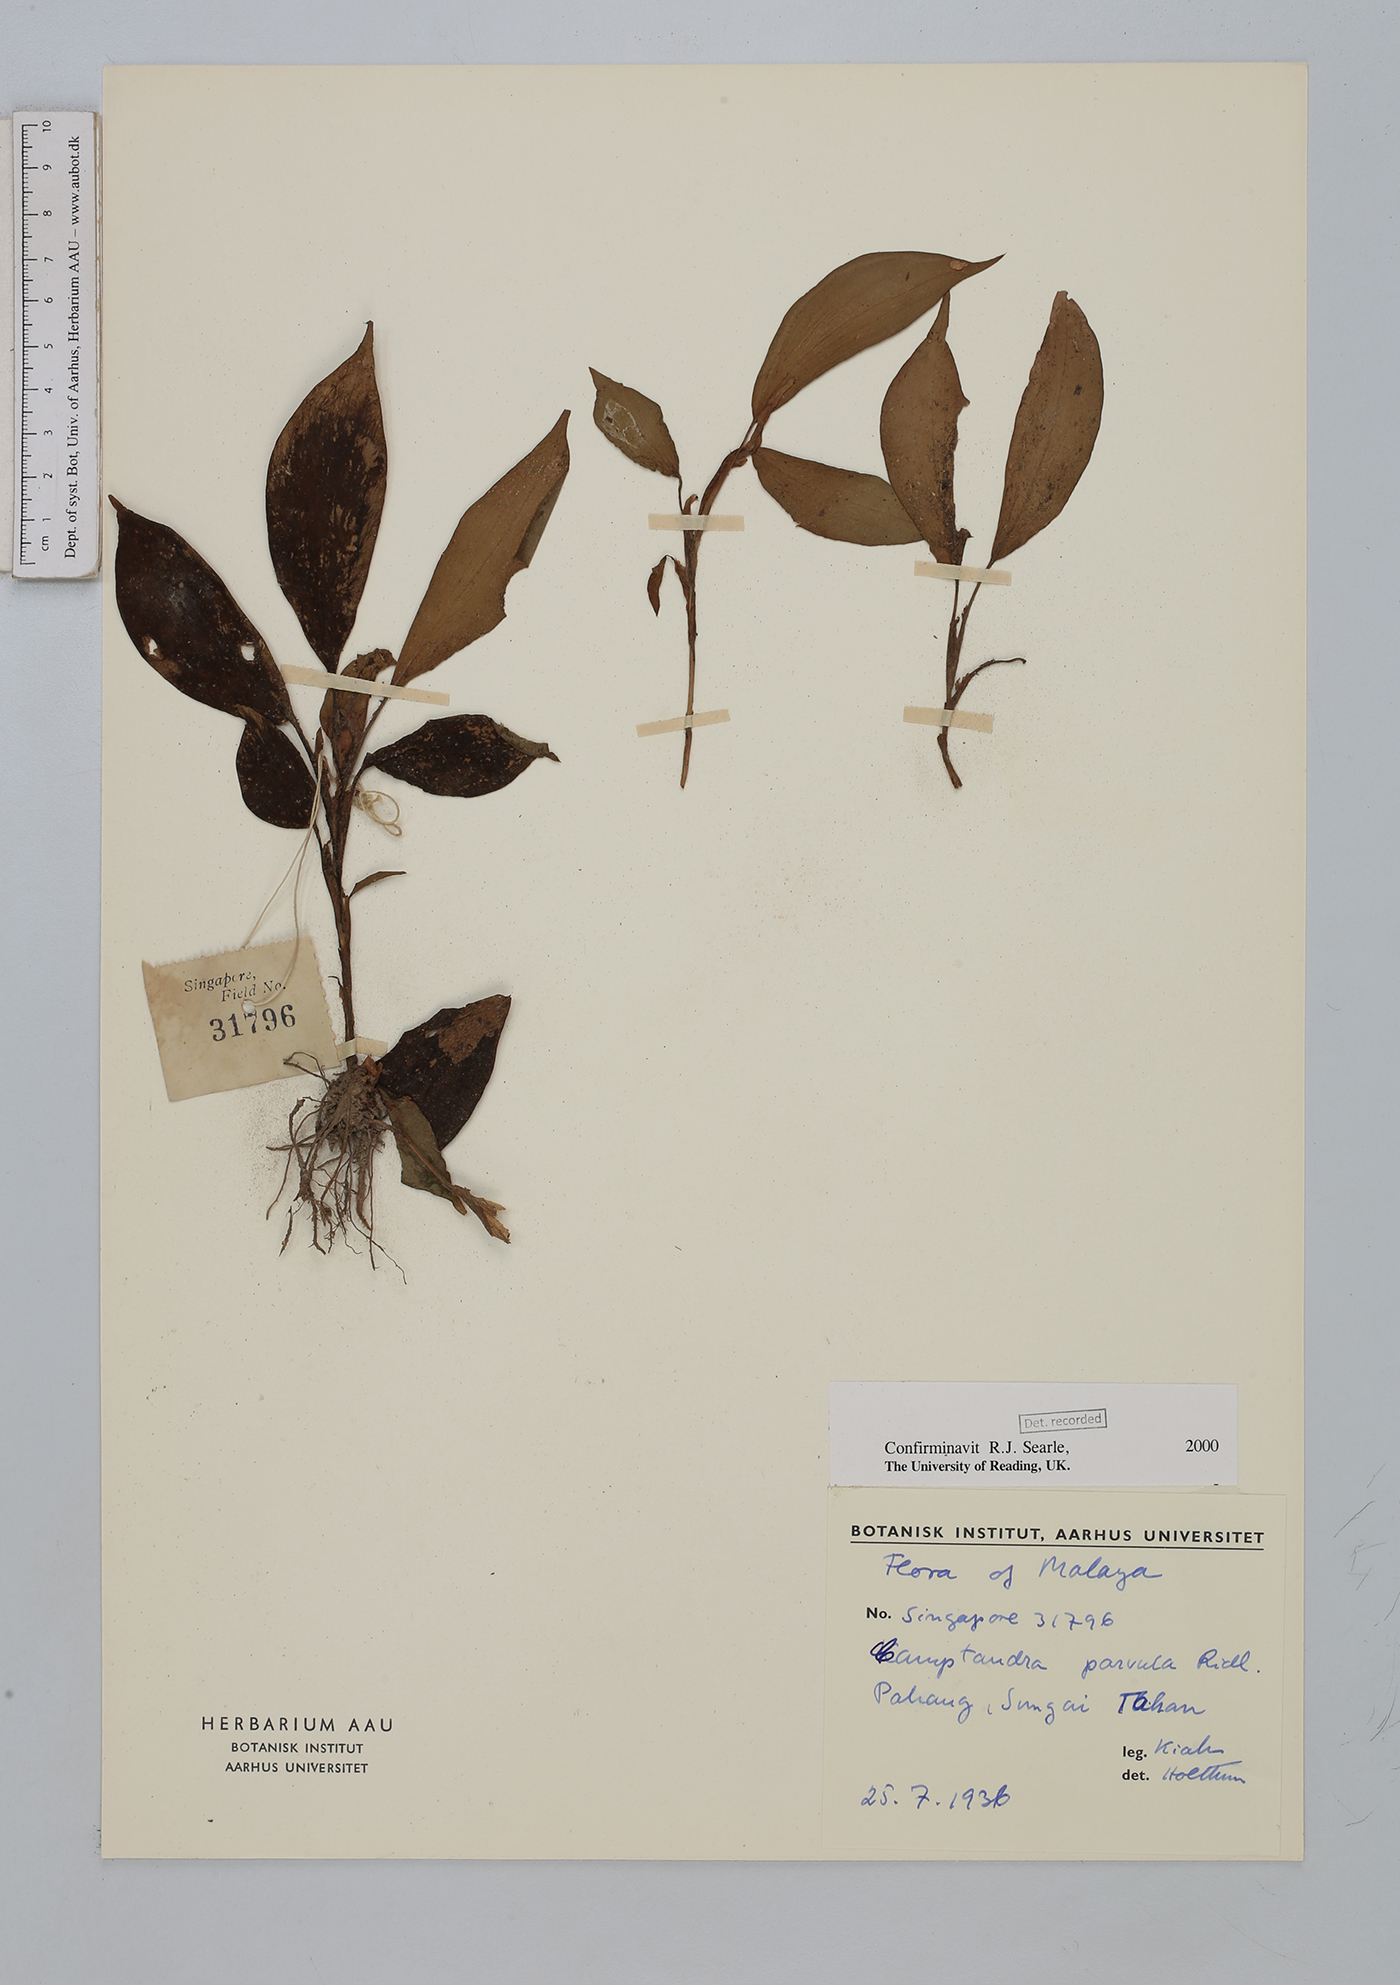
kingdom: Plantae
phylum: Tracheophyta
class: Liliopsida
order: Zingiberales
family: Zingiberaceae
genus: Camptandra
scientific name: Camptandra parvula
